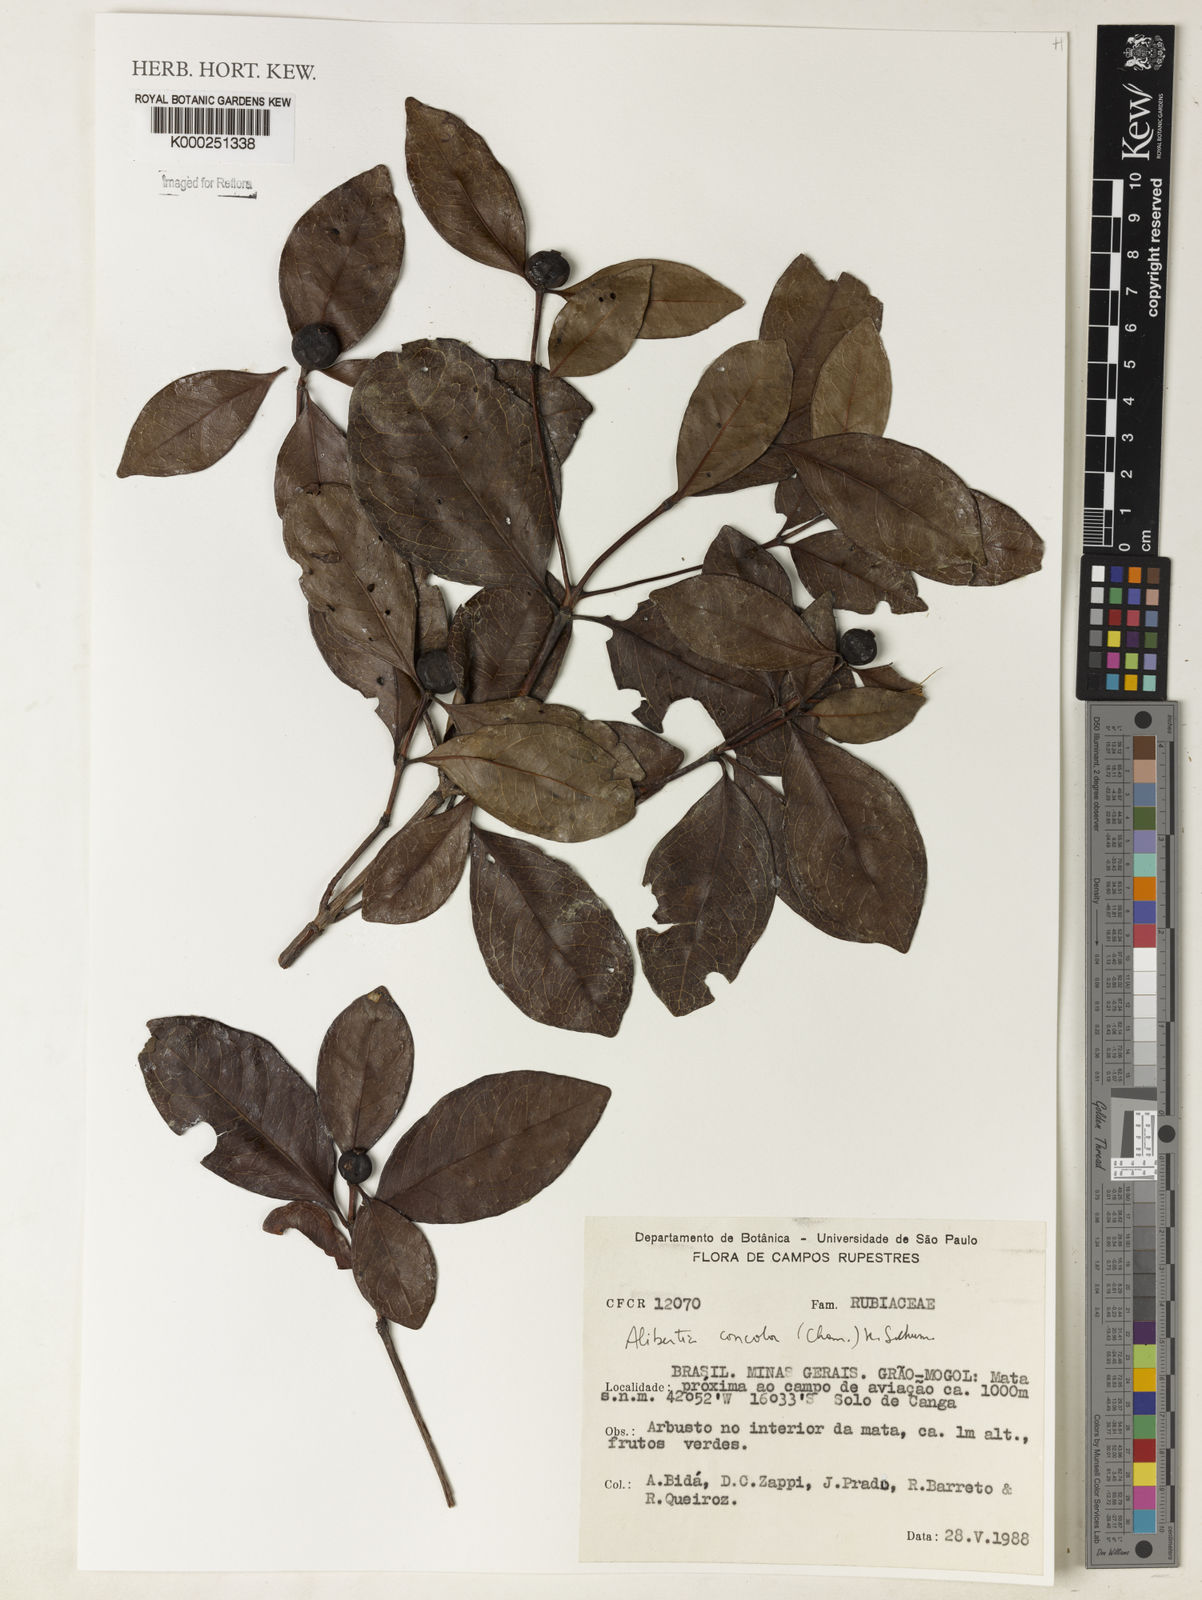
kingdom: Plantae
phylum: Tracheophyta
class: Magnoliopsida
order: Gentianales
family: Rubiaceae
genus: Cordiera
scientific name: Cordiera concolor
